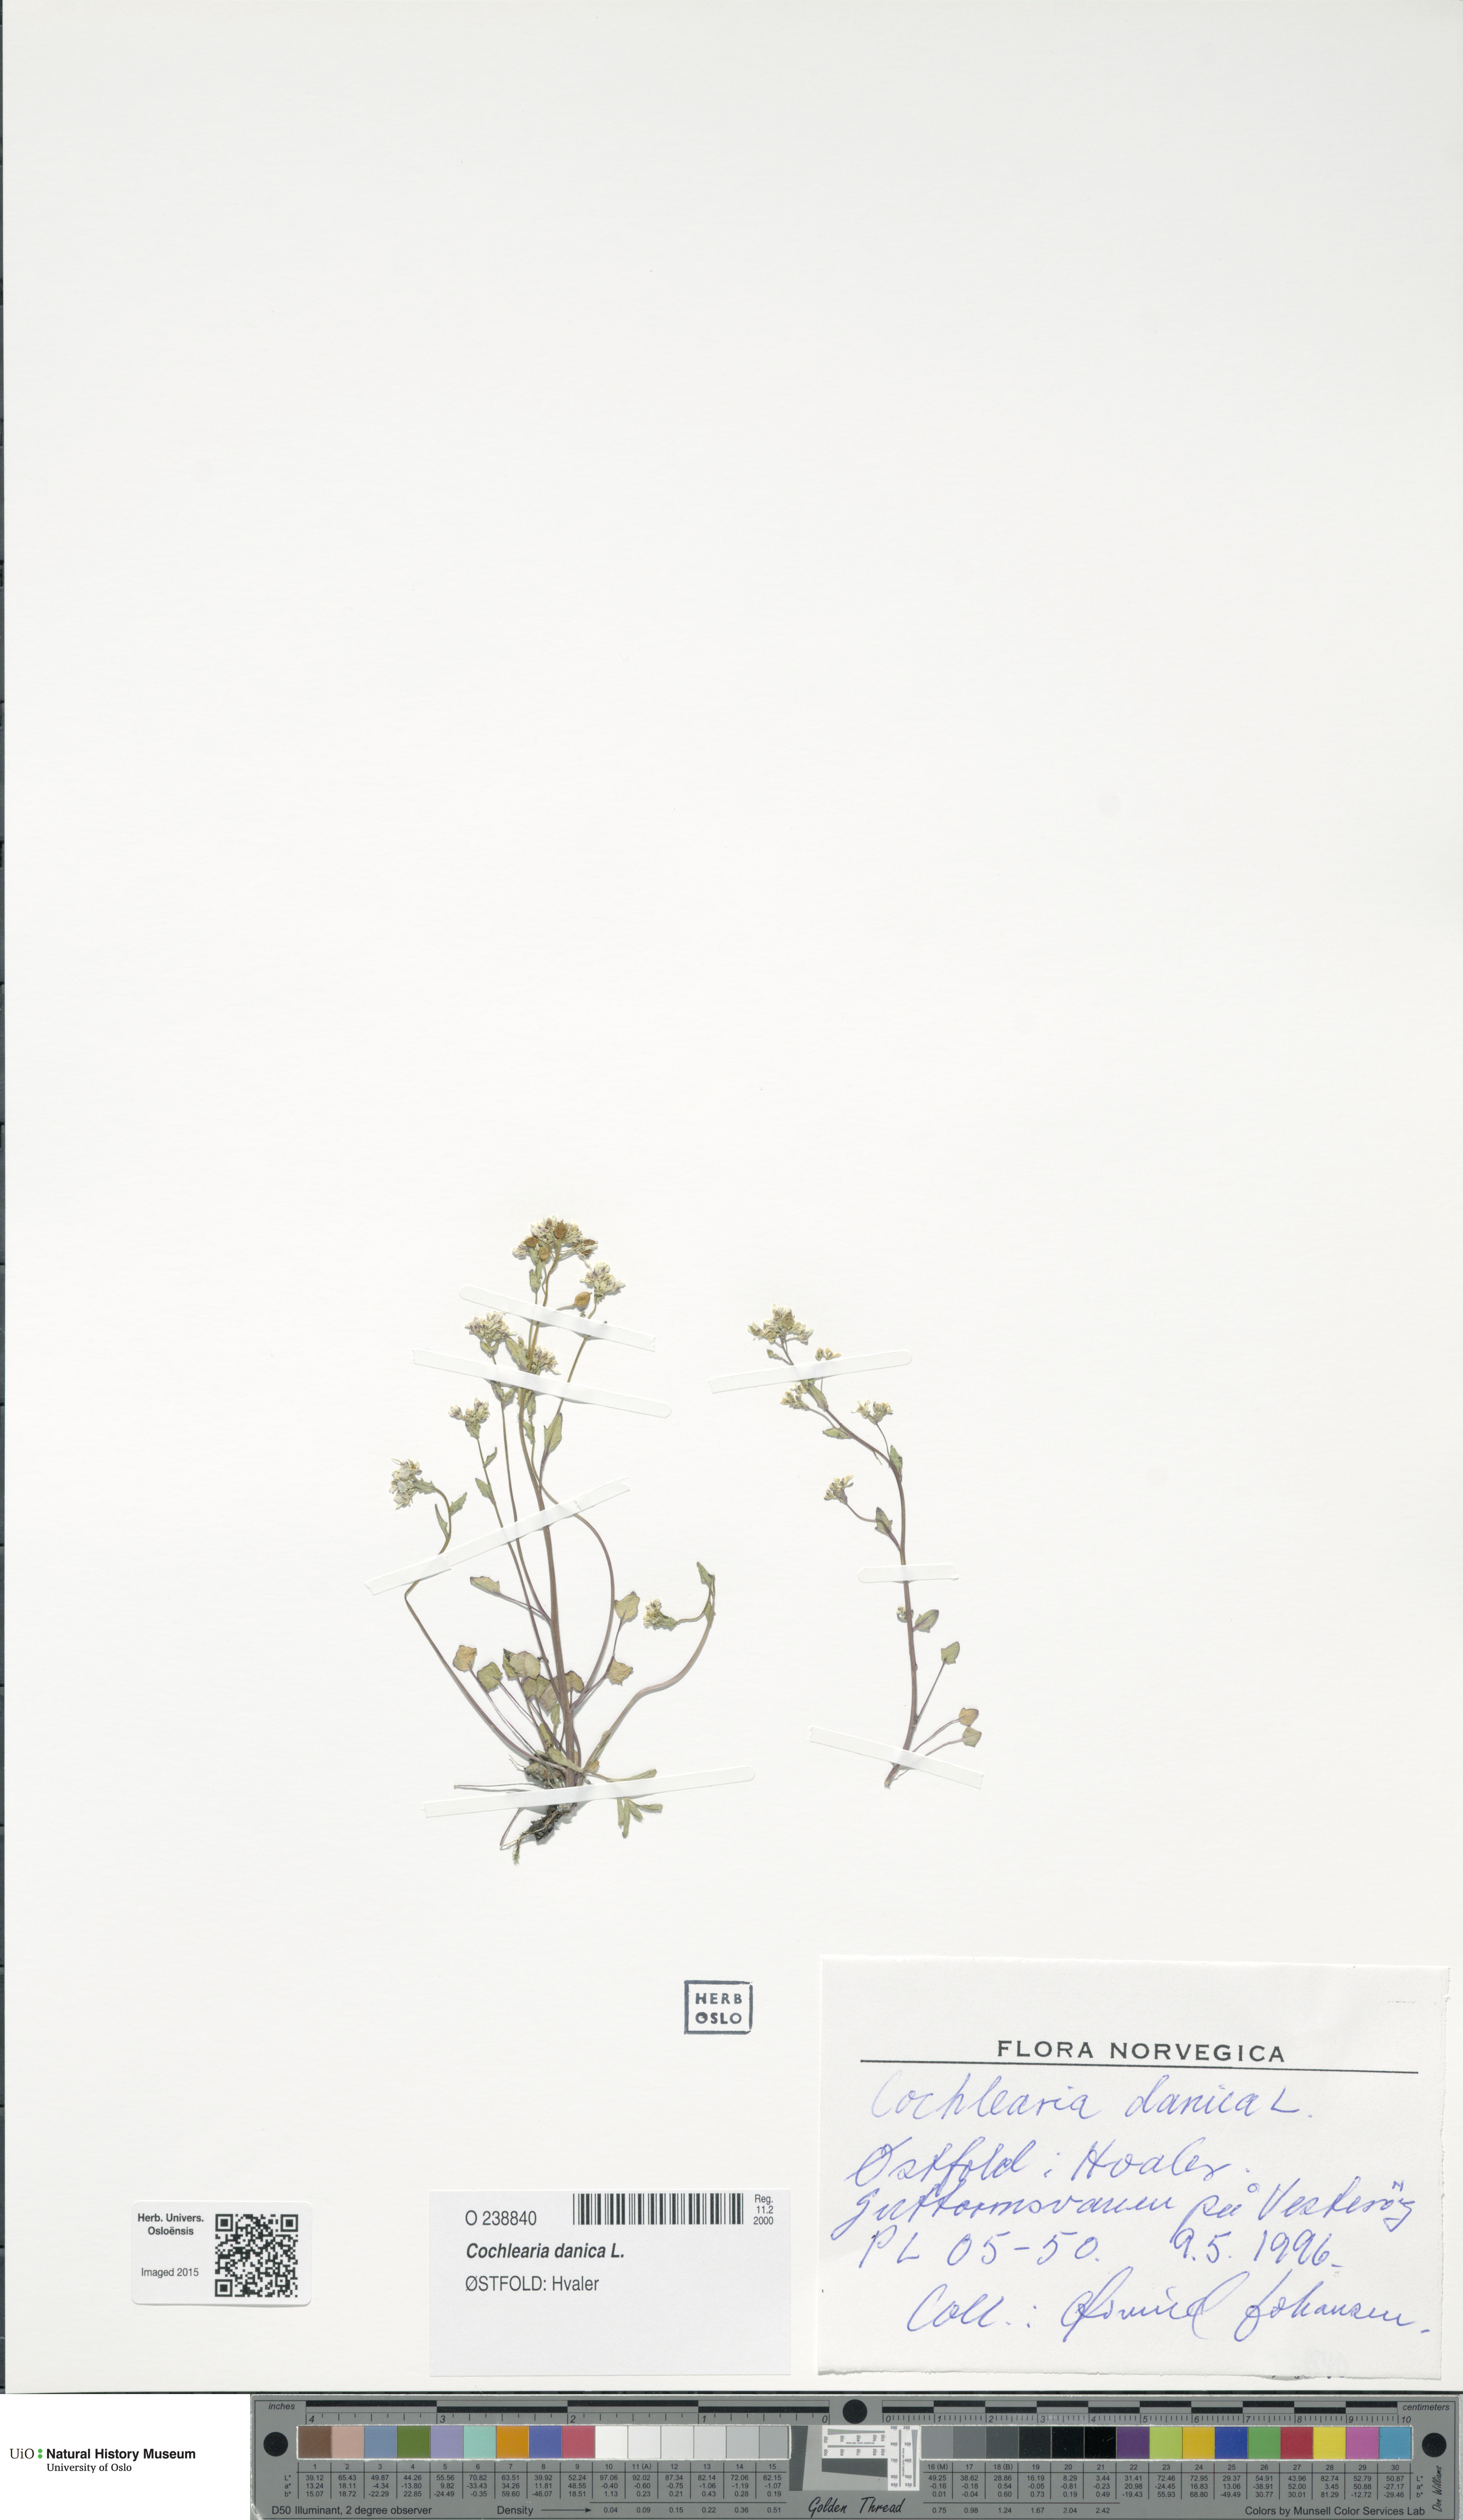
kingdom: Plantae
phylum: Tracheophyta
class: Magnoliopsida
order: Brassicales
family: Brassicaceae
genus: Cochlearia
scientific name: Cochlearia danica
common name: Early scurvygrass
